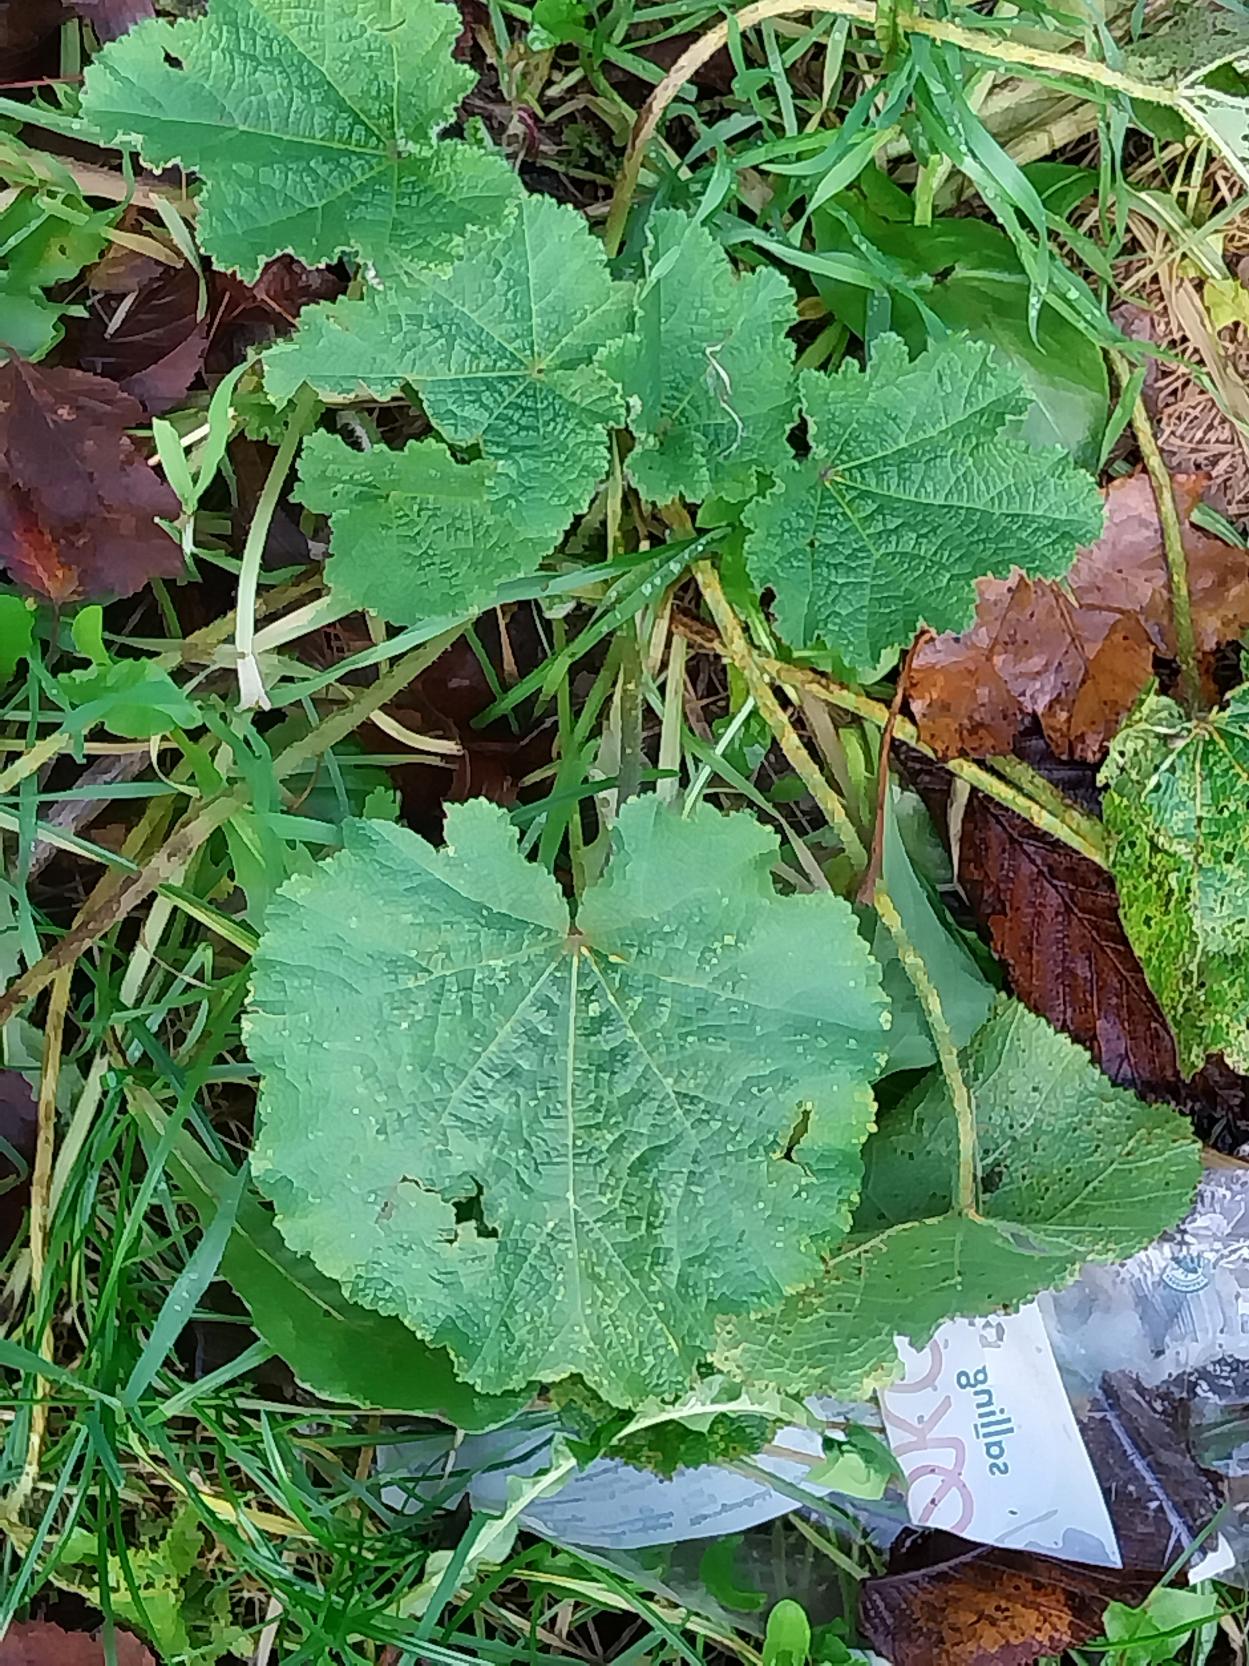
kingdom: Plantae
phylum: Tracheophyta
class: Magnoliopsida
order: Malvales
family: Malvaceae
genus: Alcea
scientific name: Alcea rosea
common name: Have-stokrose
